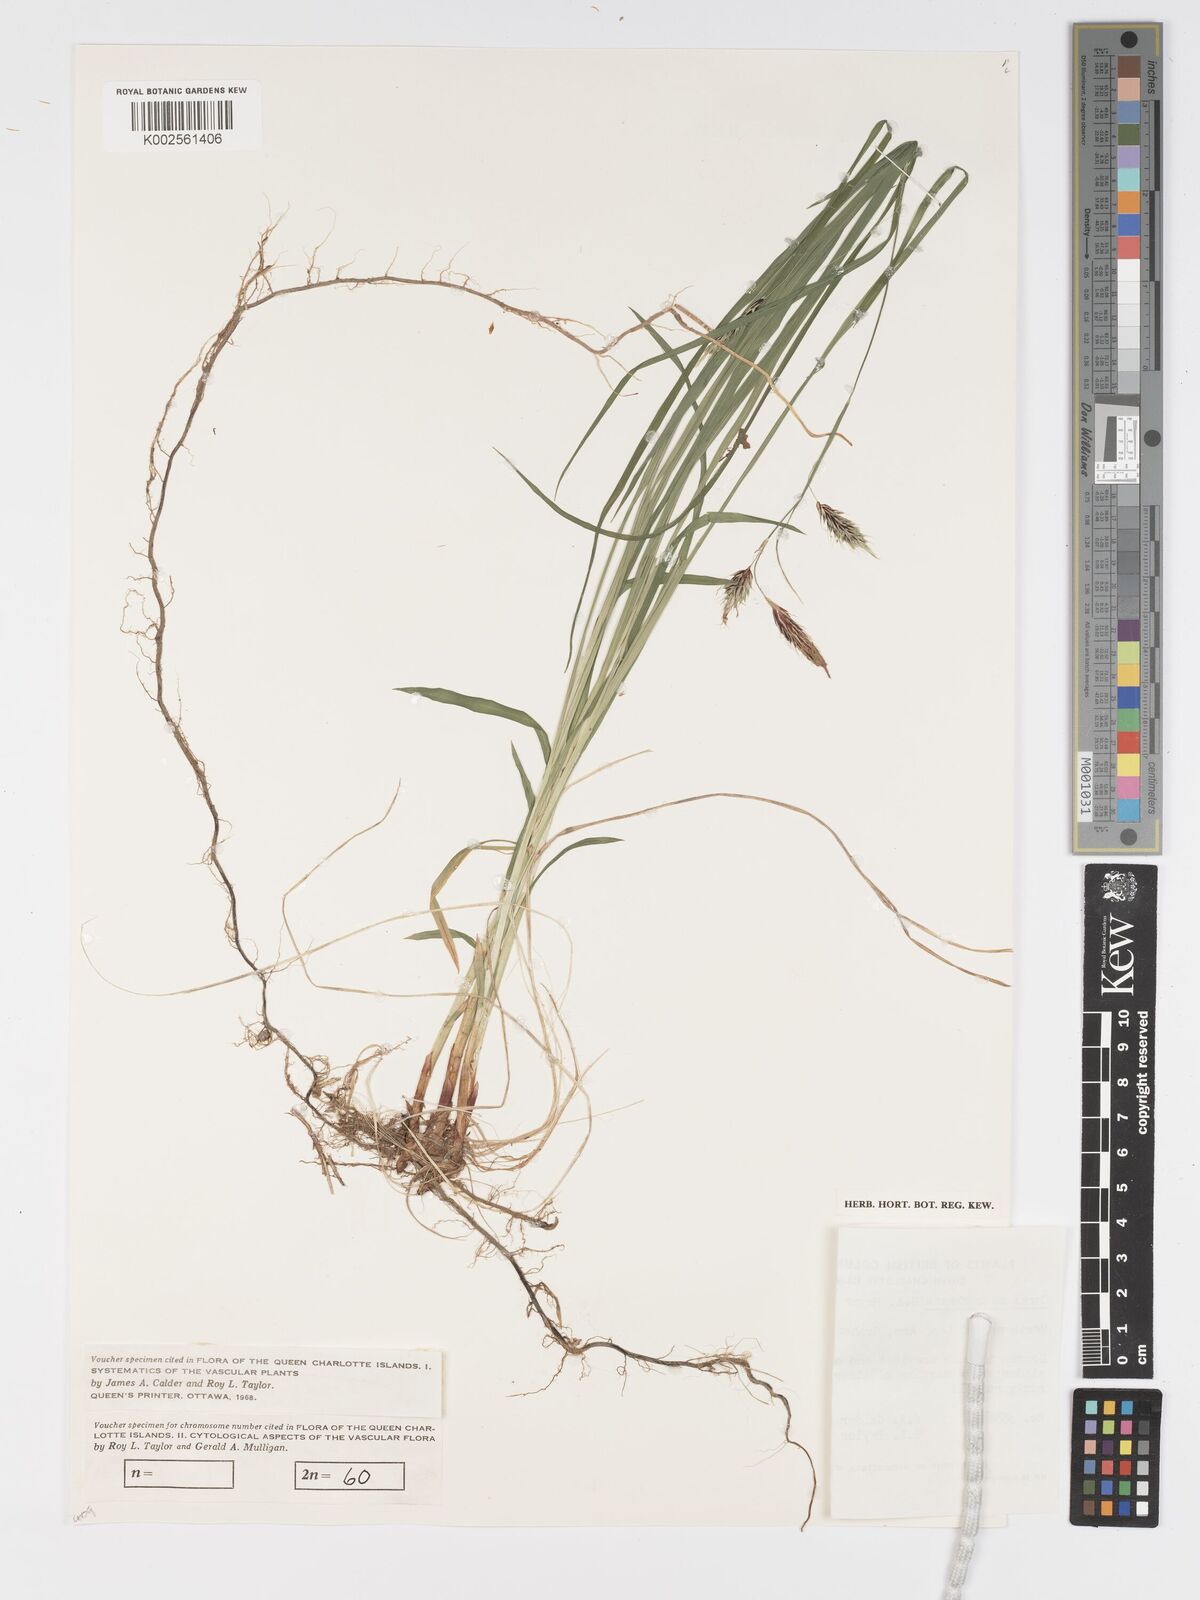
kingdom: Plantae
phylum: Tracheophyta
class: Liliopsida
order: Poales
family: Cyperaceae
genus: Carex
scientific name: Carex macrochaeta
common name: Alaska large awn sedge
